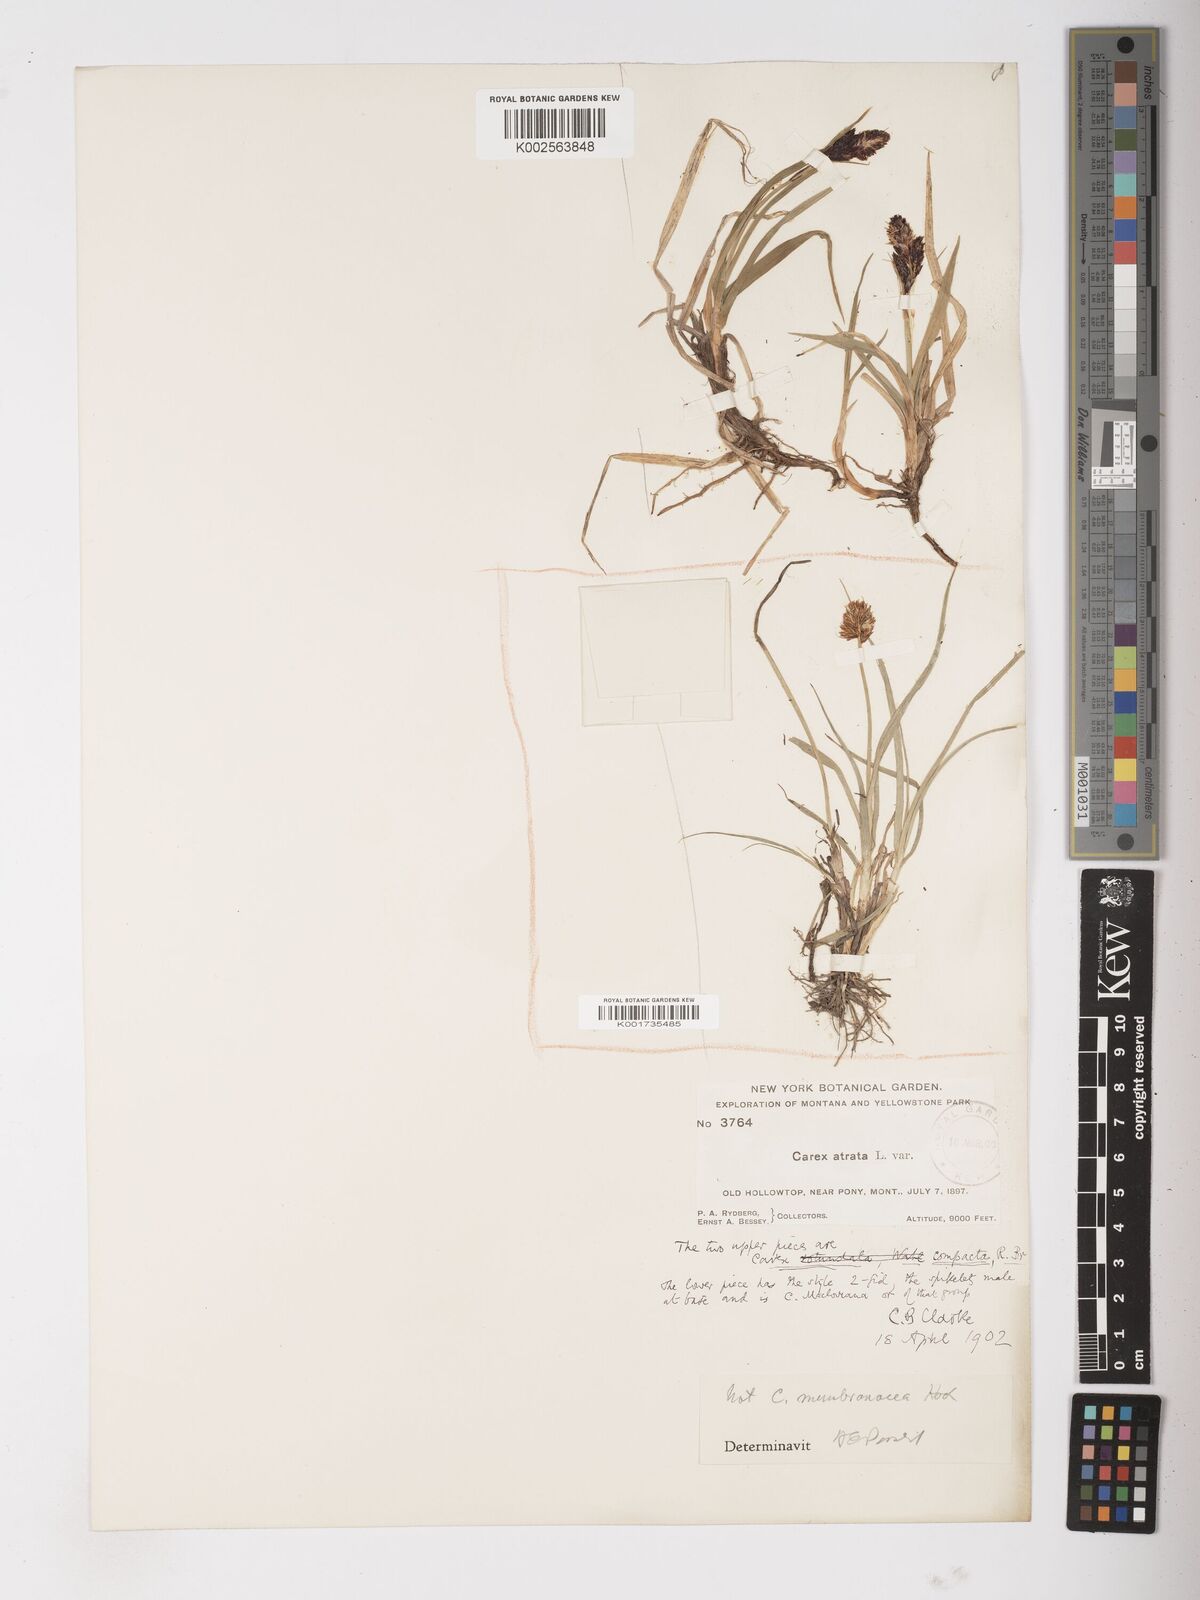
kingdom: Plantae
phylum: Tracheophyta
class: Liliopsida
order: Poales
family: Cyperaceae
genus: Carex
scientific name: Carex membranacea
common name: Fragile sedge
